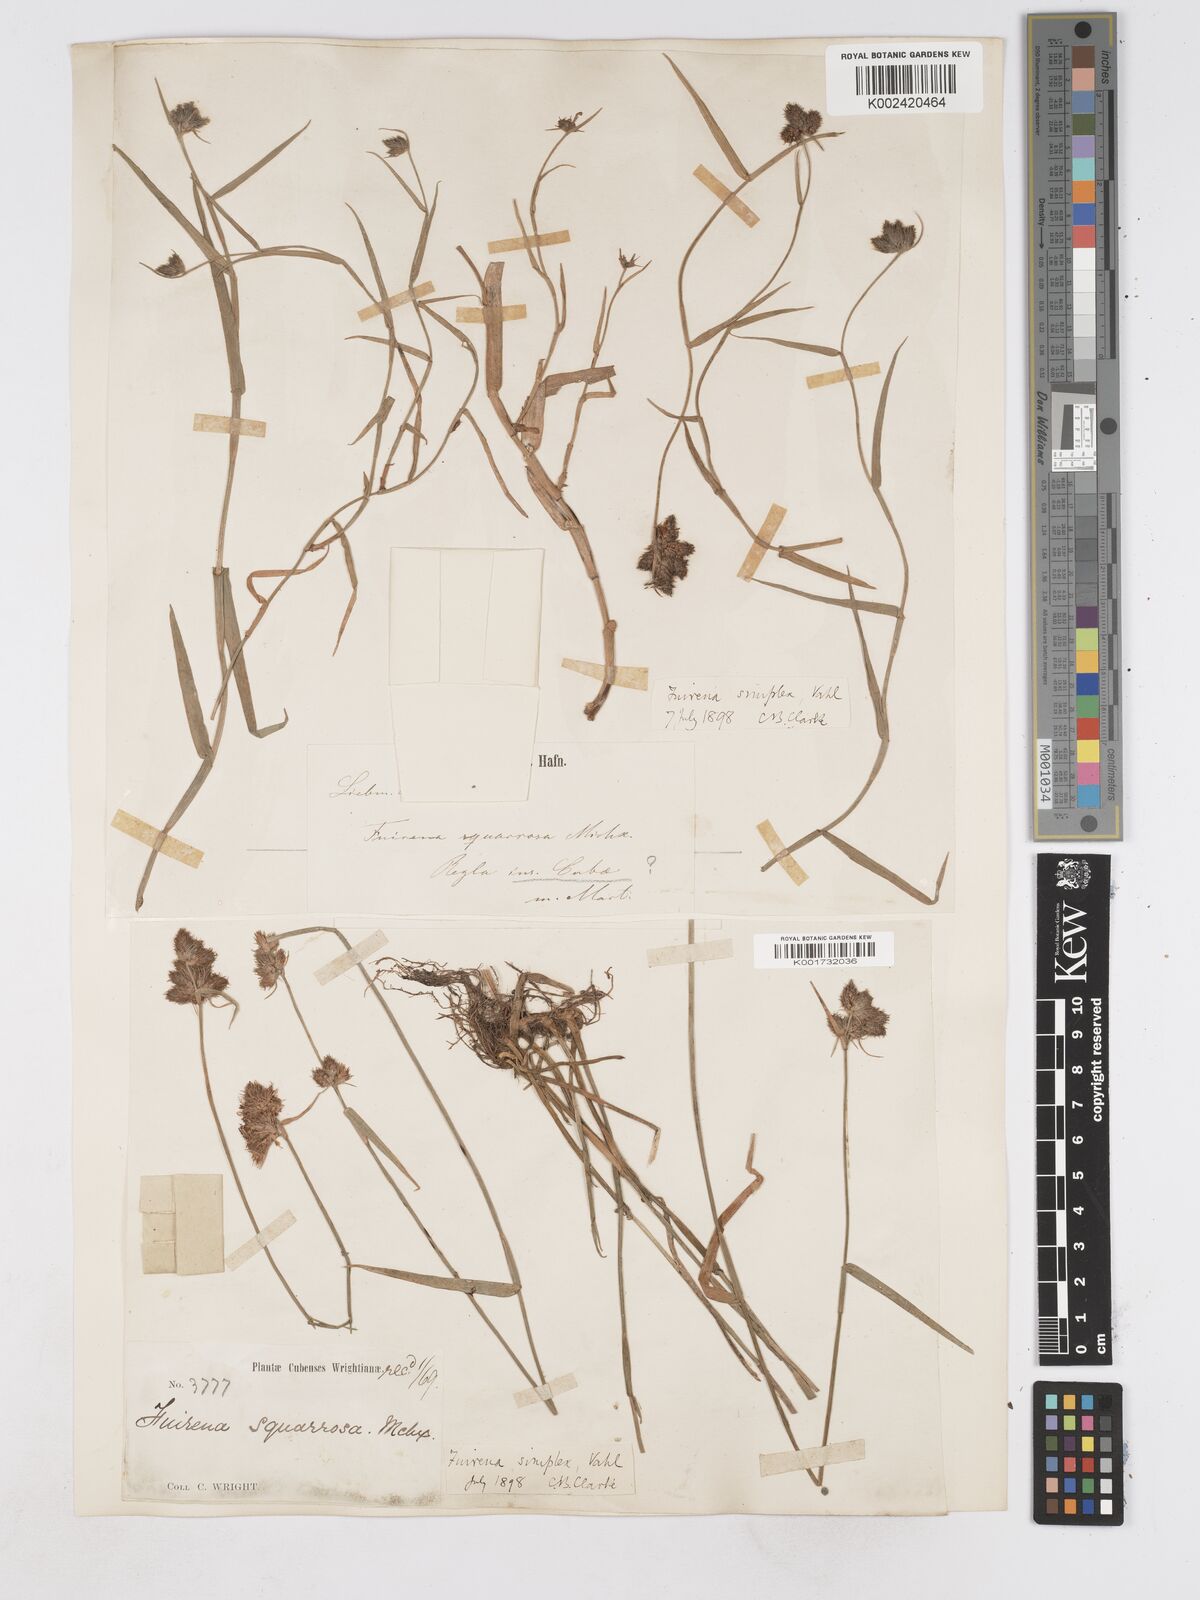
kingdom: Plantae
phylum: Tracheophyta
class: Liliopsida
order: Poales
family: Cyperaceae
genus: Fuirena
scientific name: Fuirena simplex
